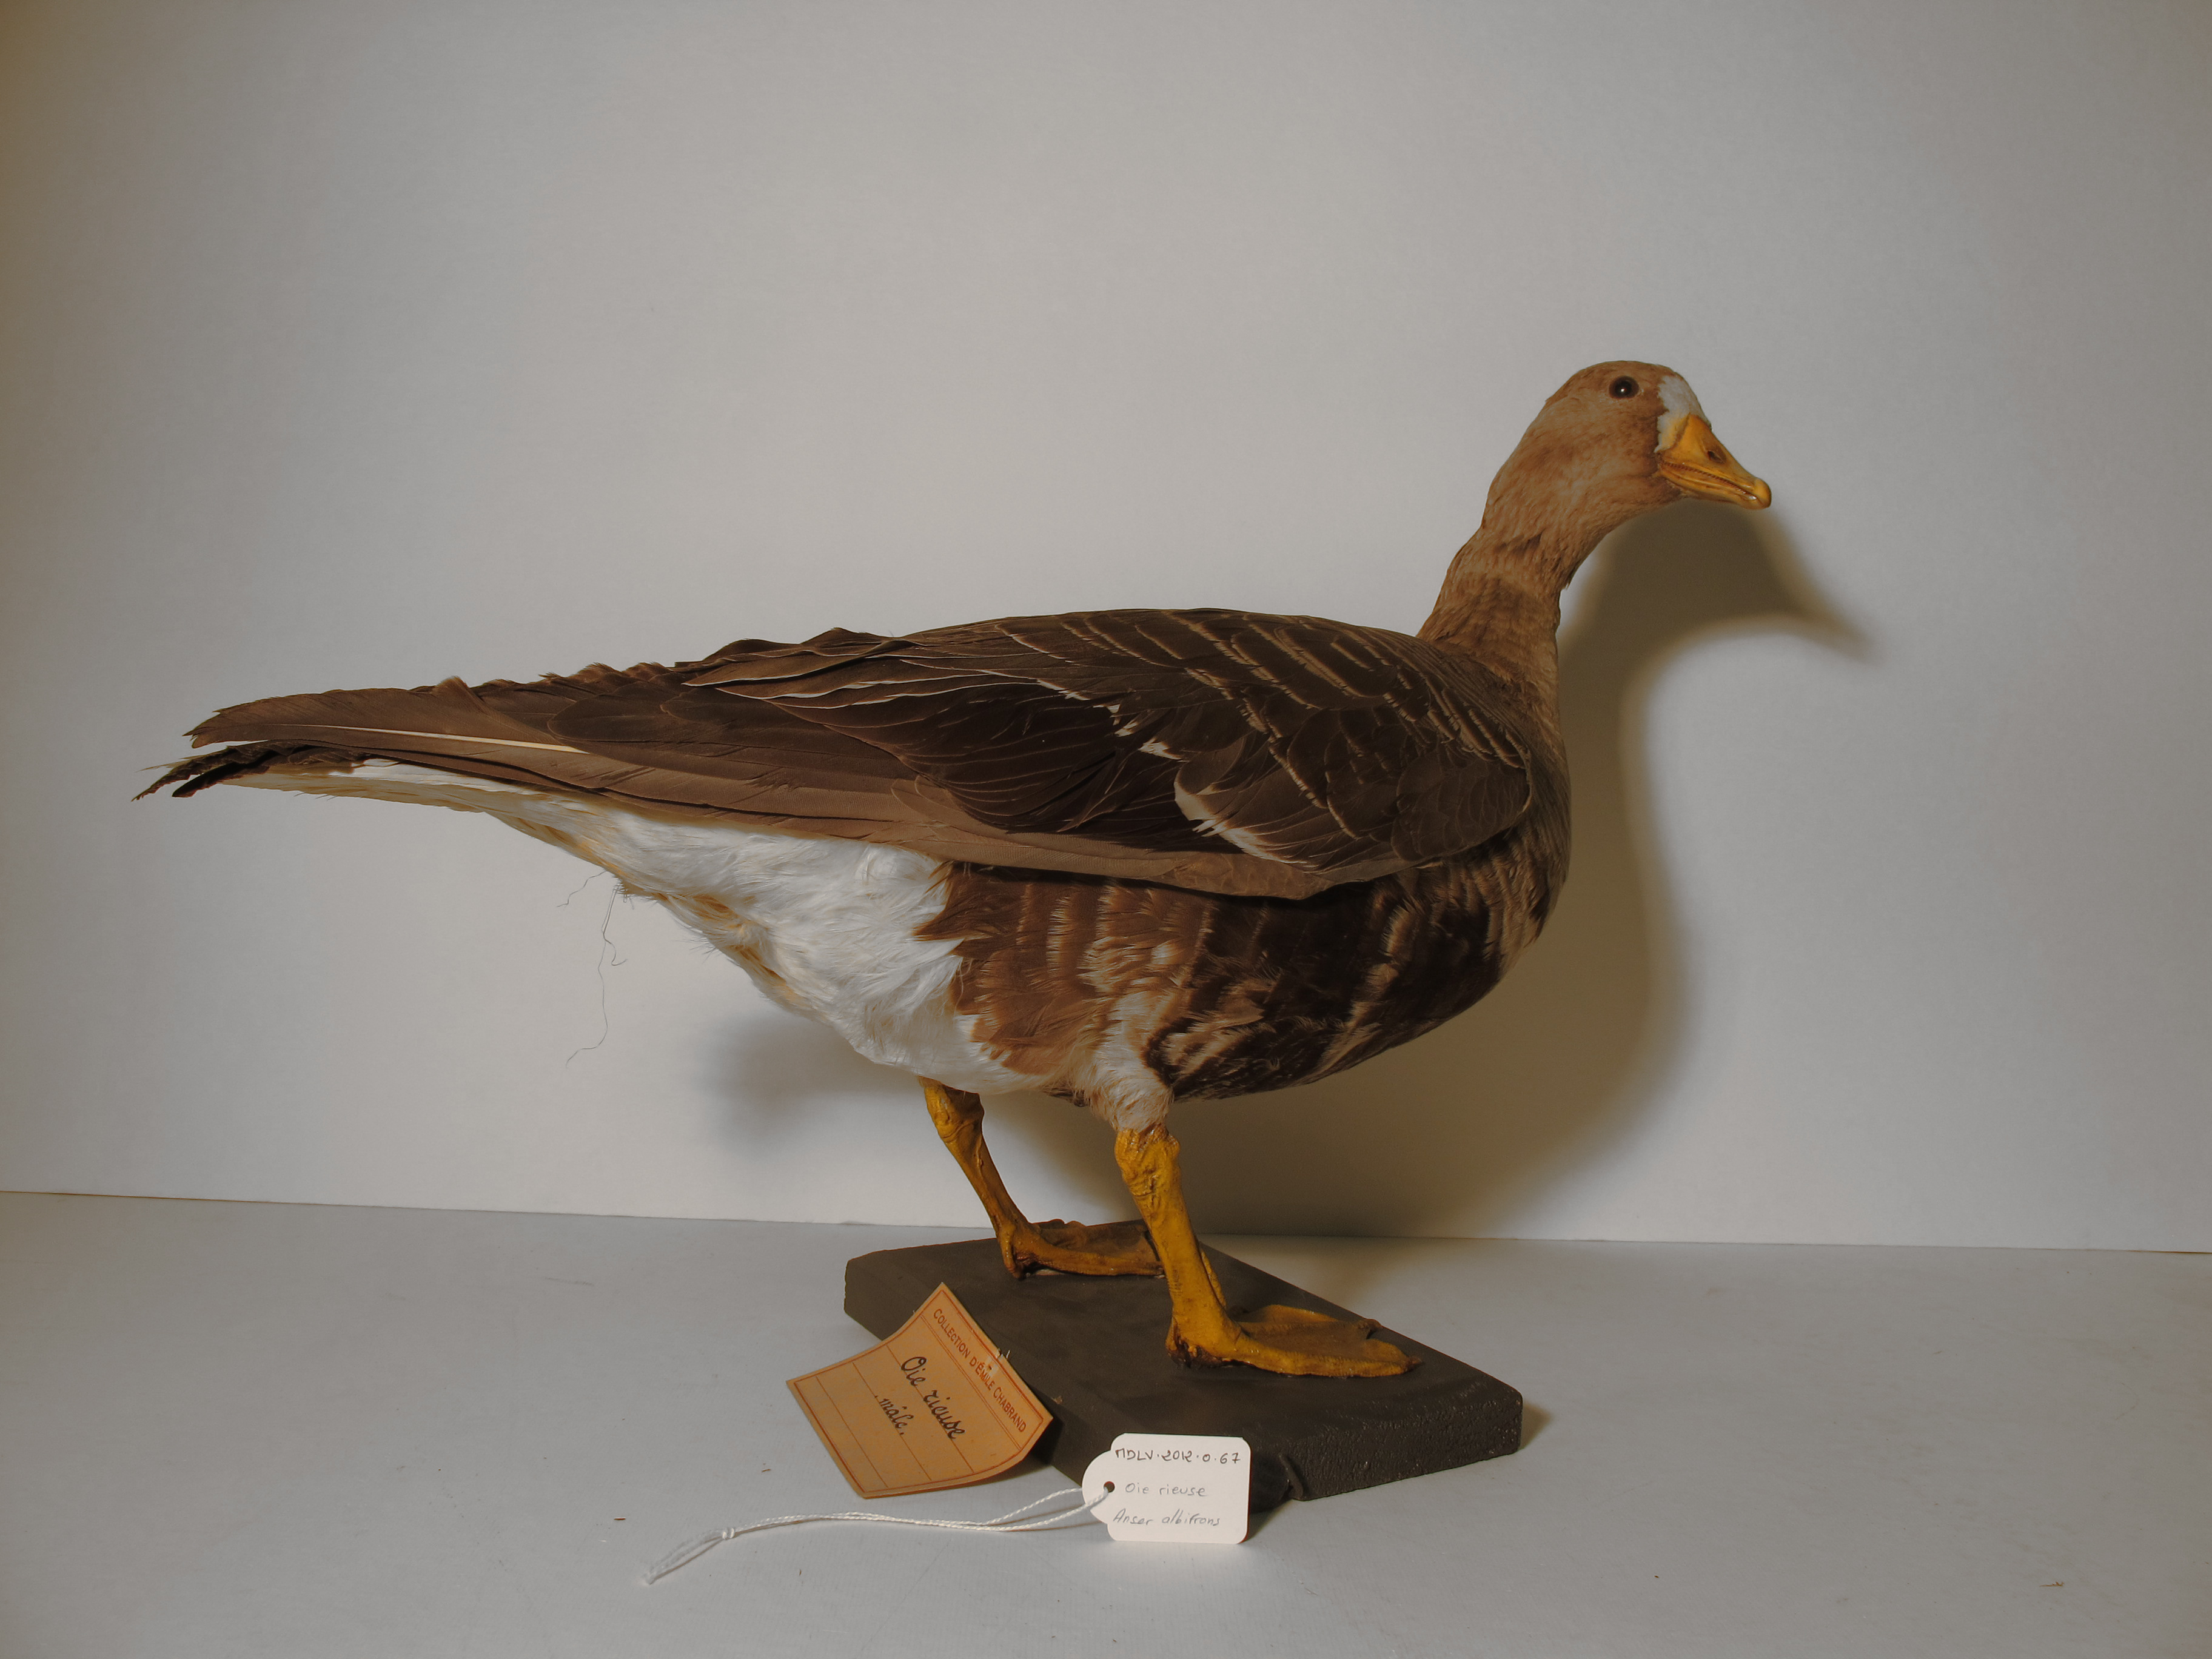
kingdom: Animalia
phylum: Chordata
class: Aves
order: Anseriformes
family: Anatidae
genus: Anser
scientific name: Anser albifrons
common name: Greater White-fronted Goose
